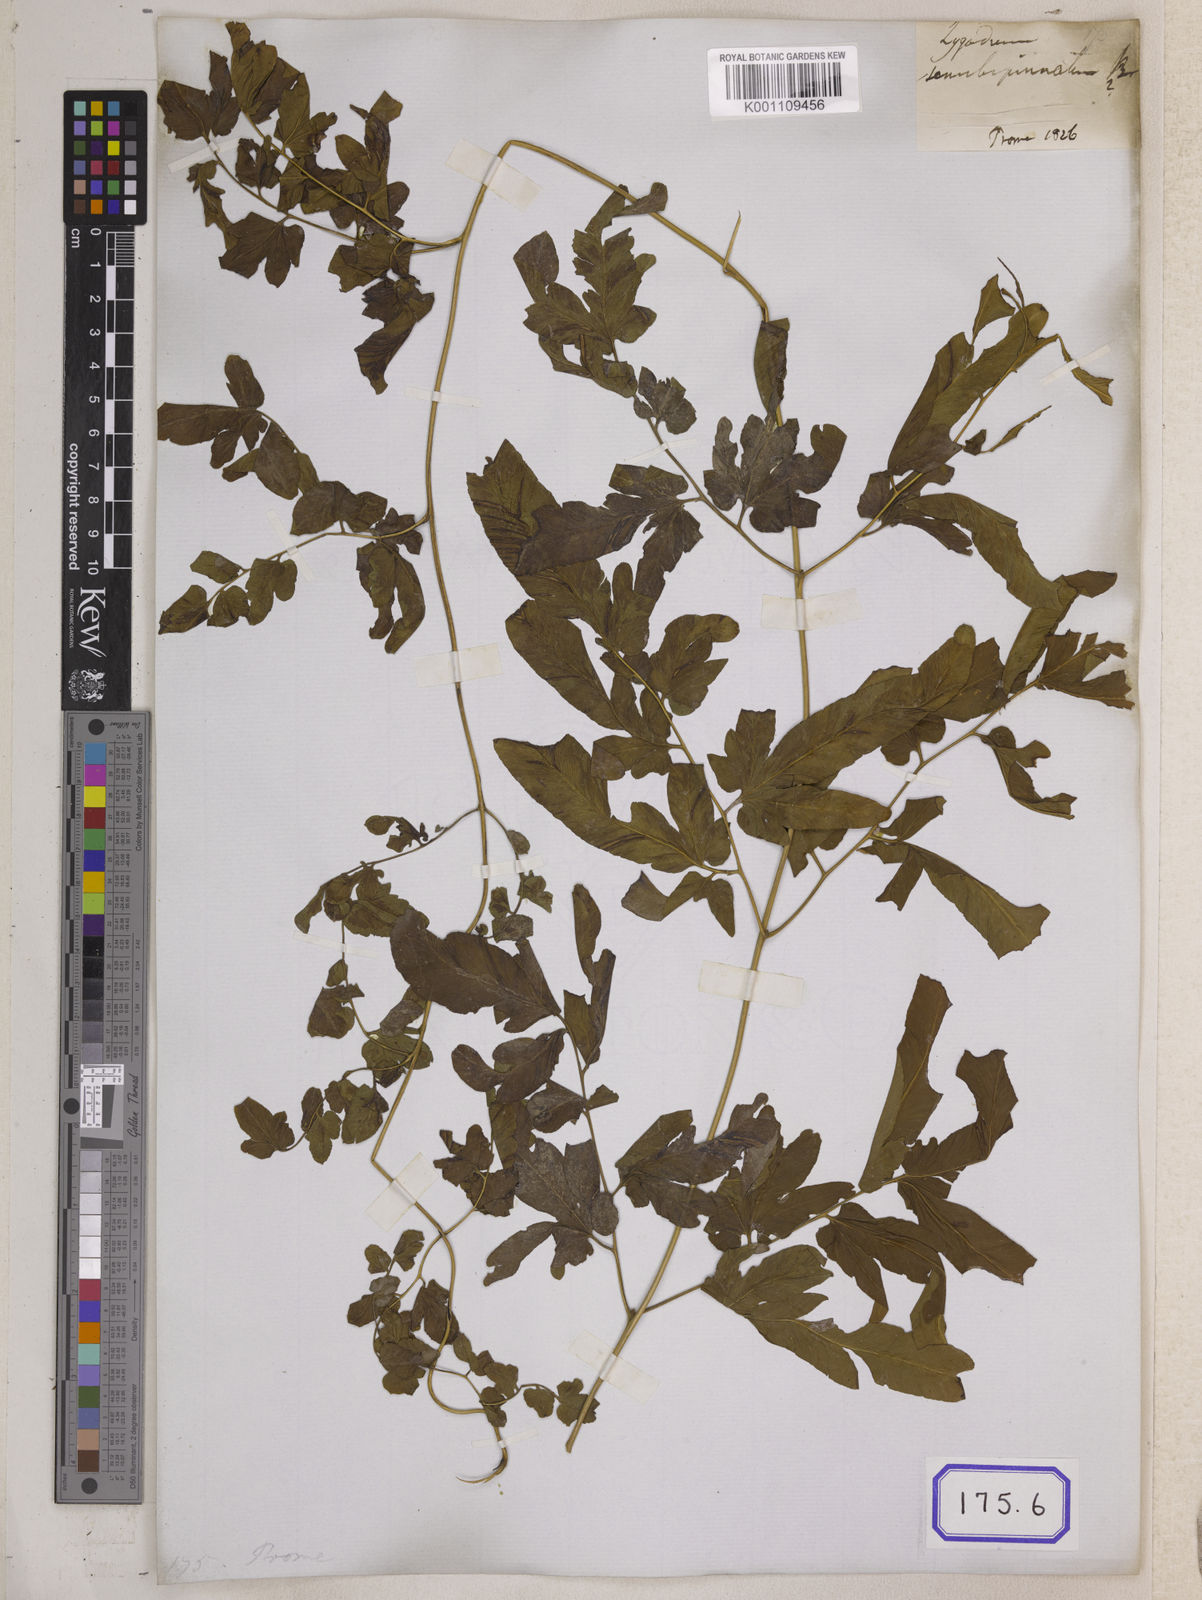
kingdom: Plantae
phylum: Tracheophyta
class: Polypodiopsida
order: Schizaeales
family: Lygodiaceae
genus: Lygodium
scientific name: Lygodium flexuosum
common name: Maidenhair creeper
